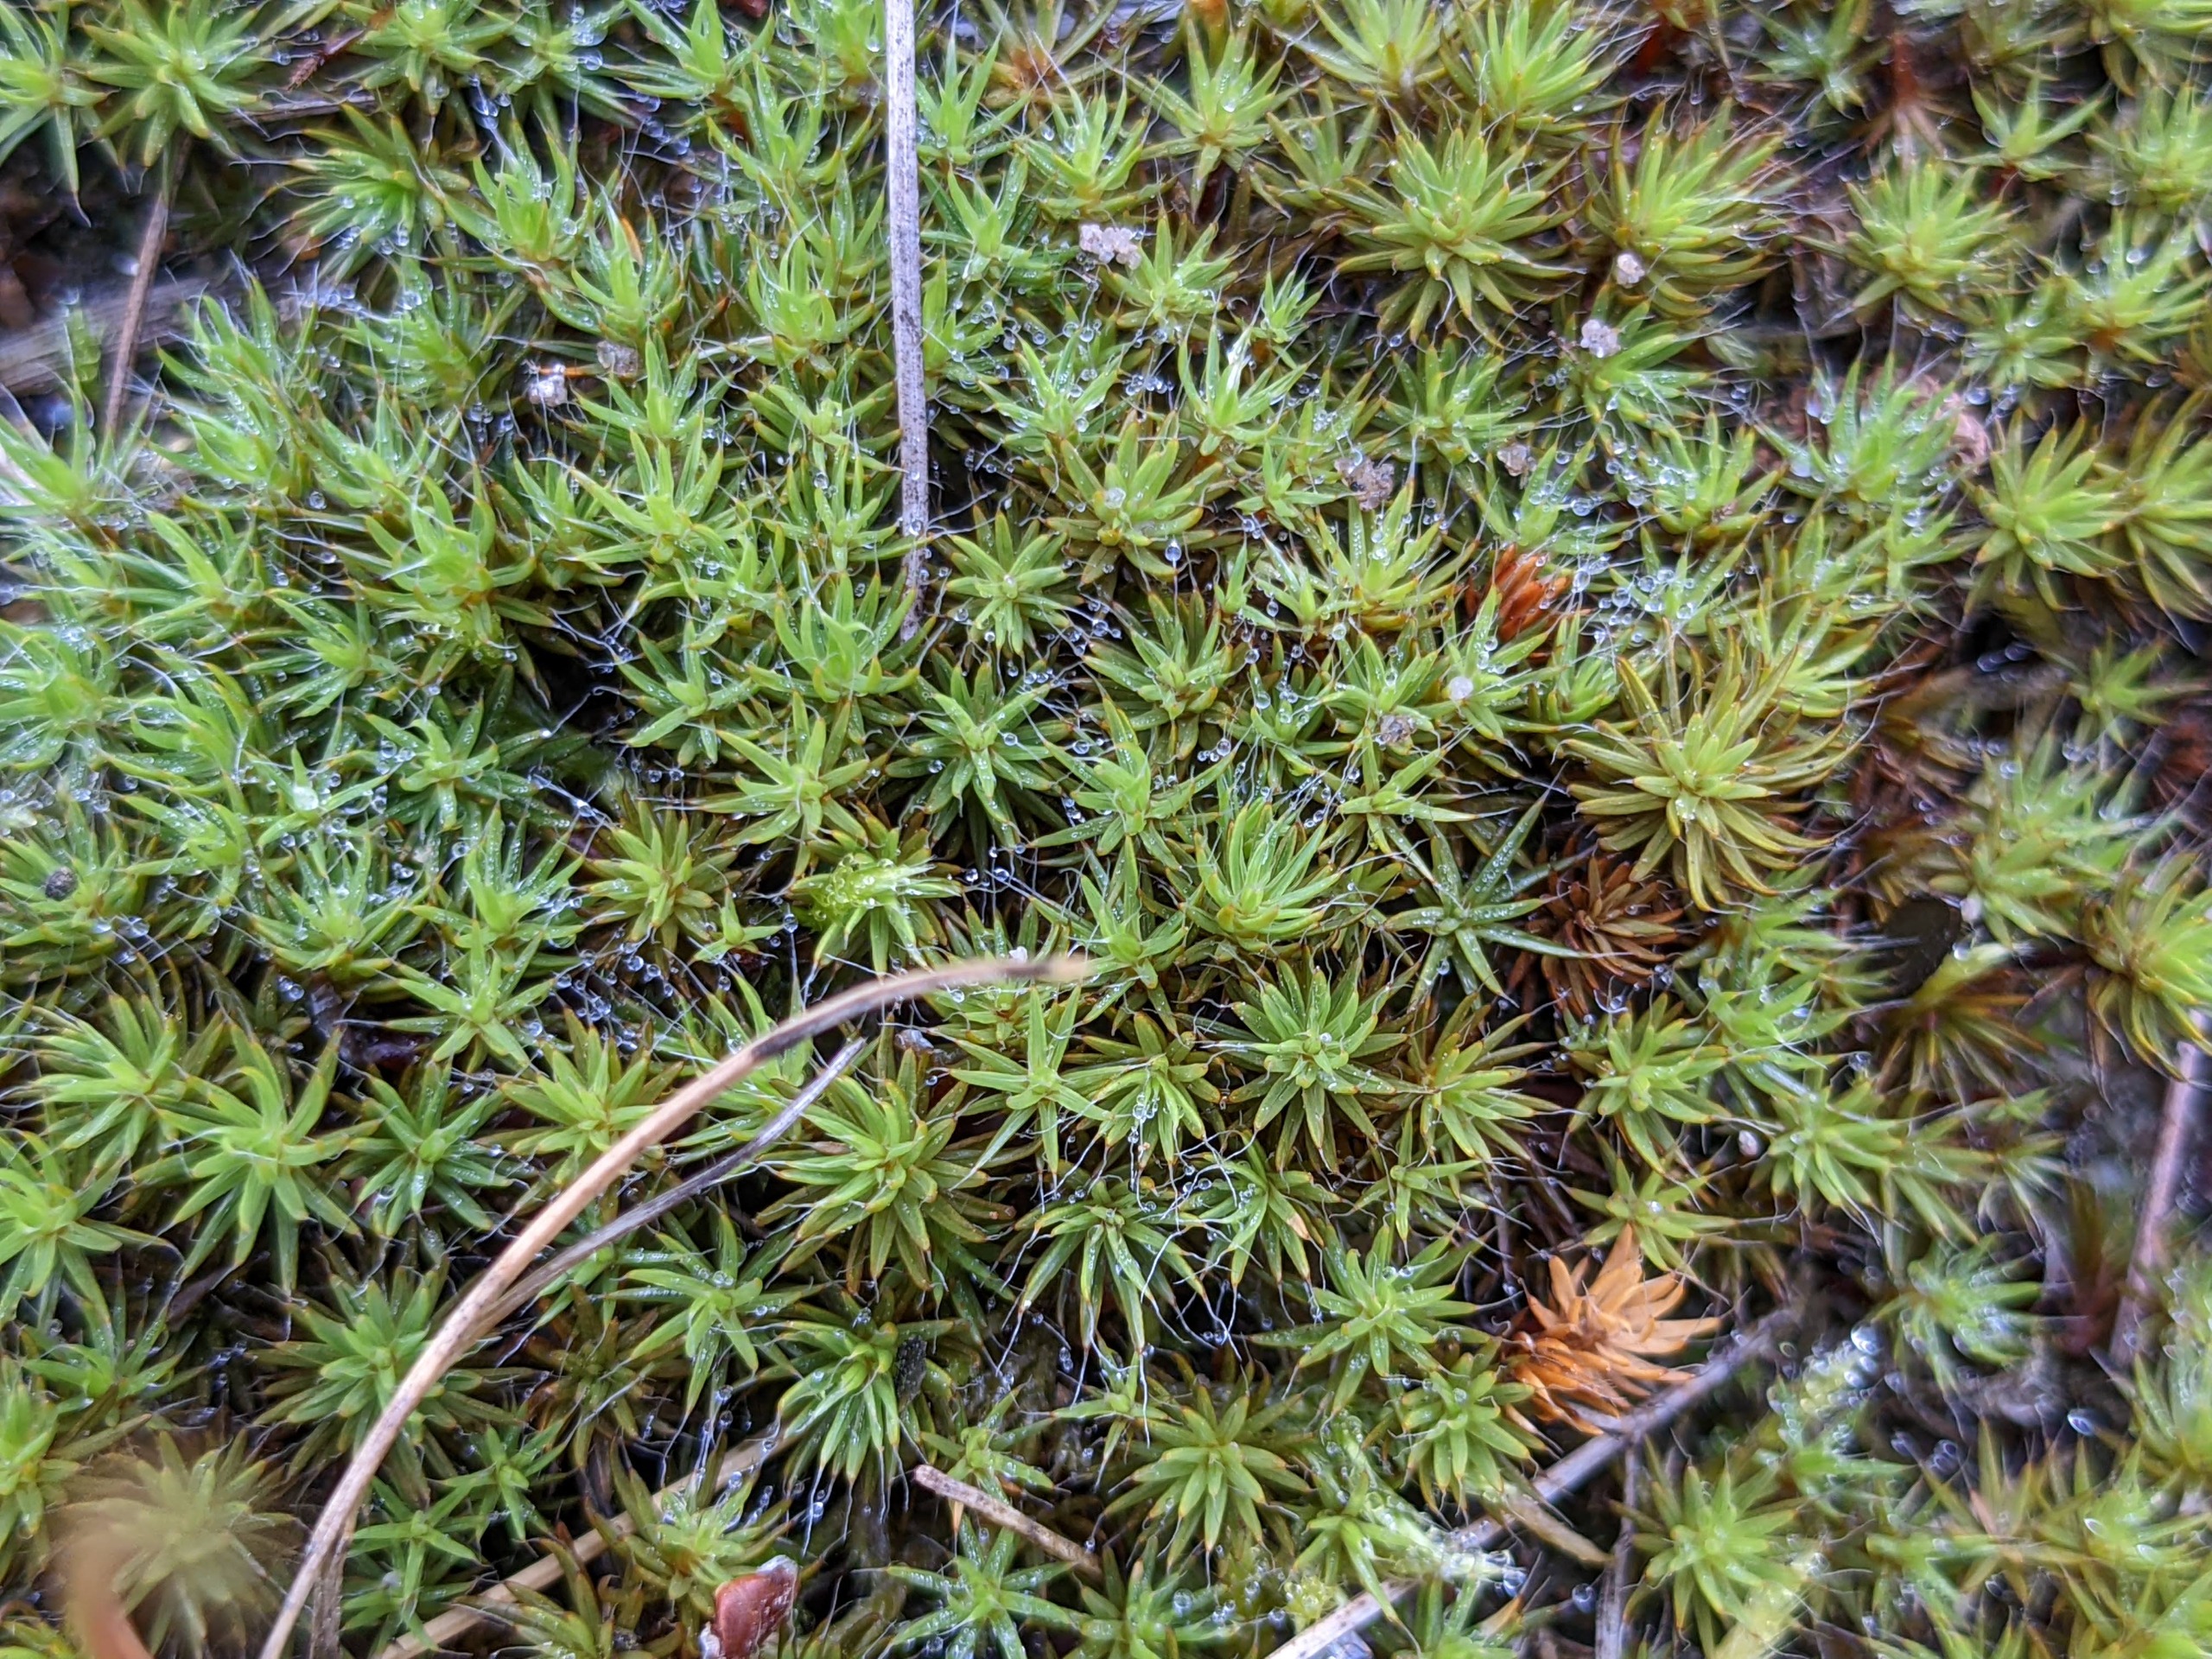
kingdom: Plantae
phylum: Bryophyta
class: Polytrichopsida
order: Polytrichales
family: Polytrichaceae
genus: Polytrichum
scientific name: Polytrichum piliferum
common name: Hårspidset jomfruhår
